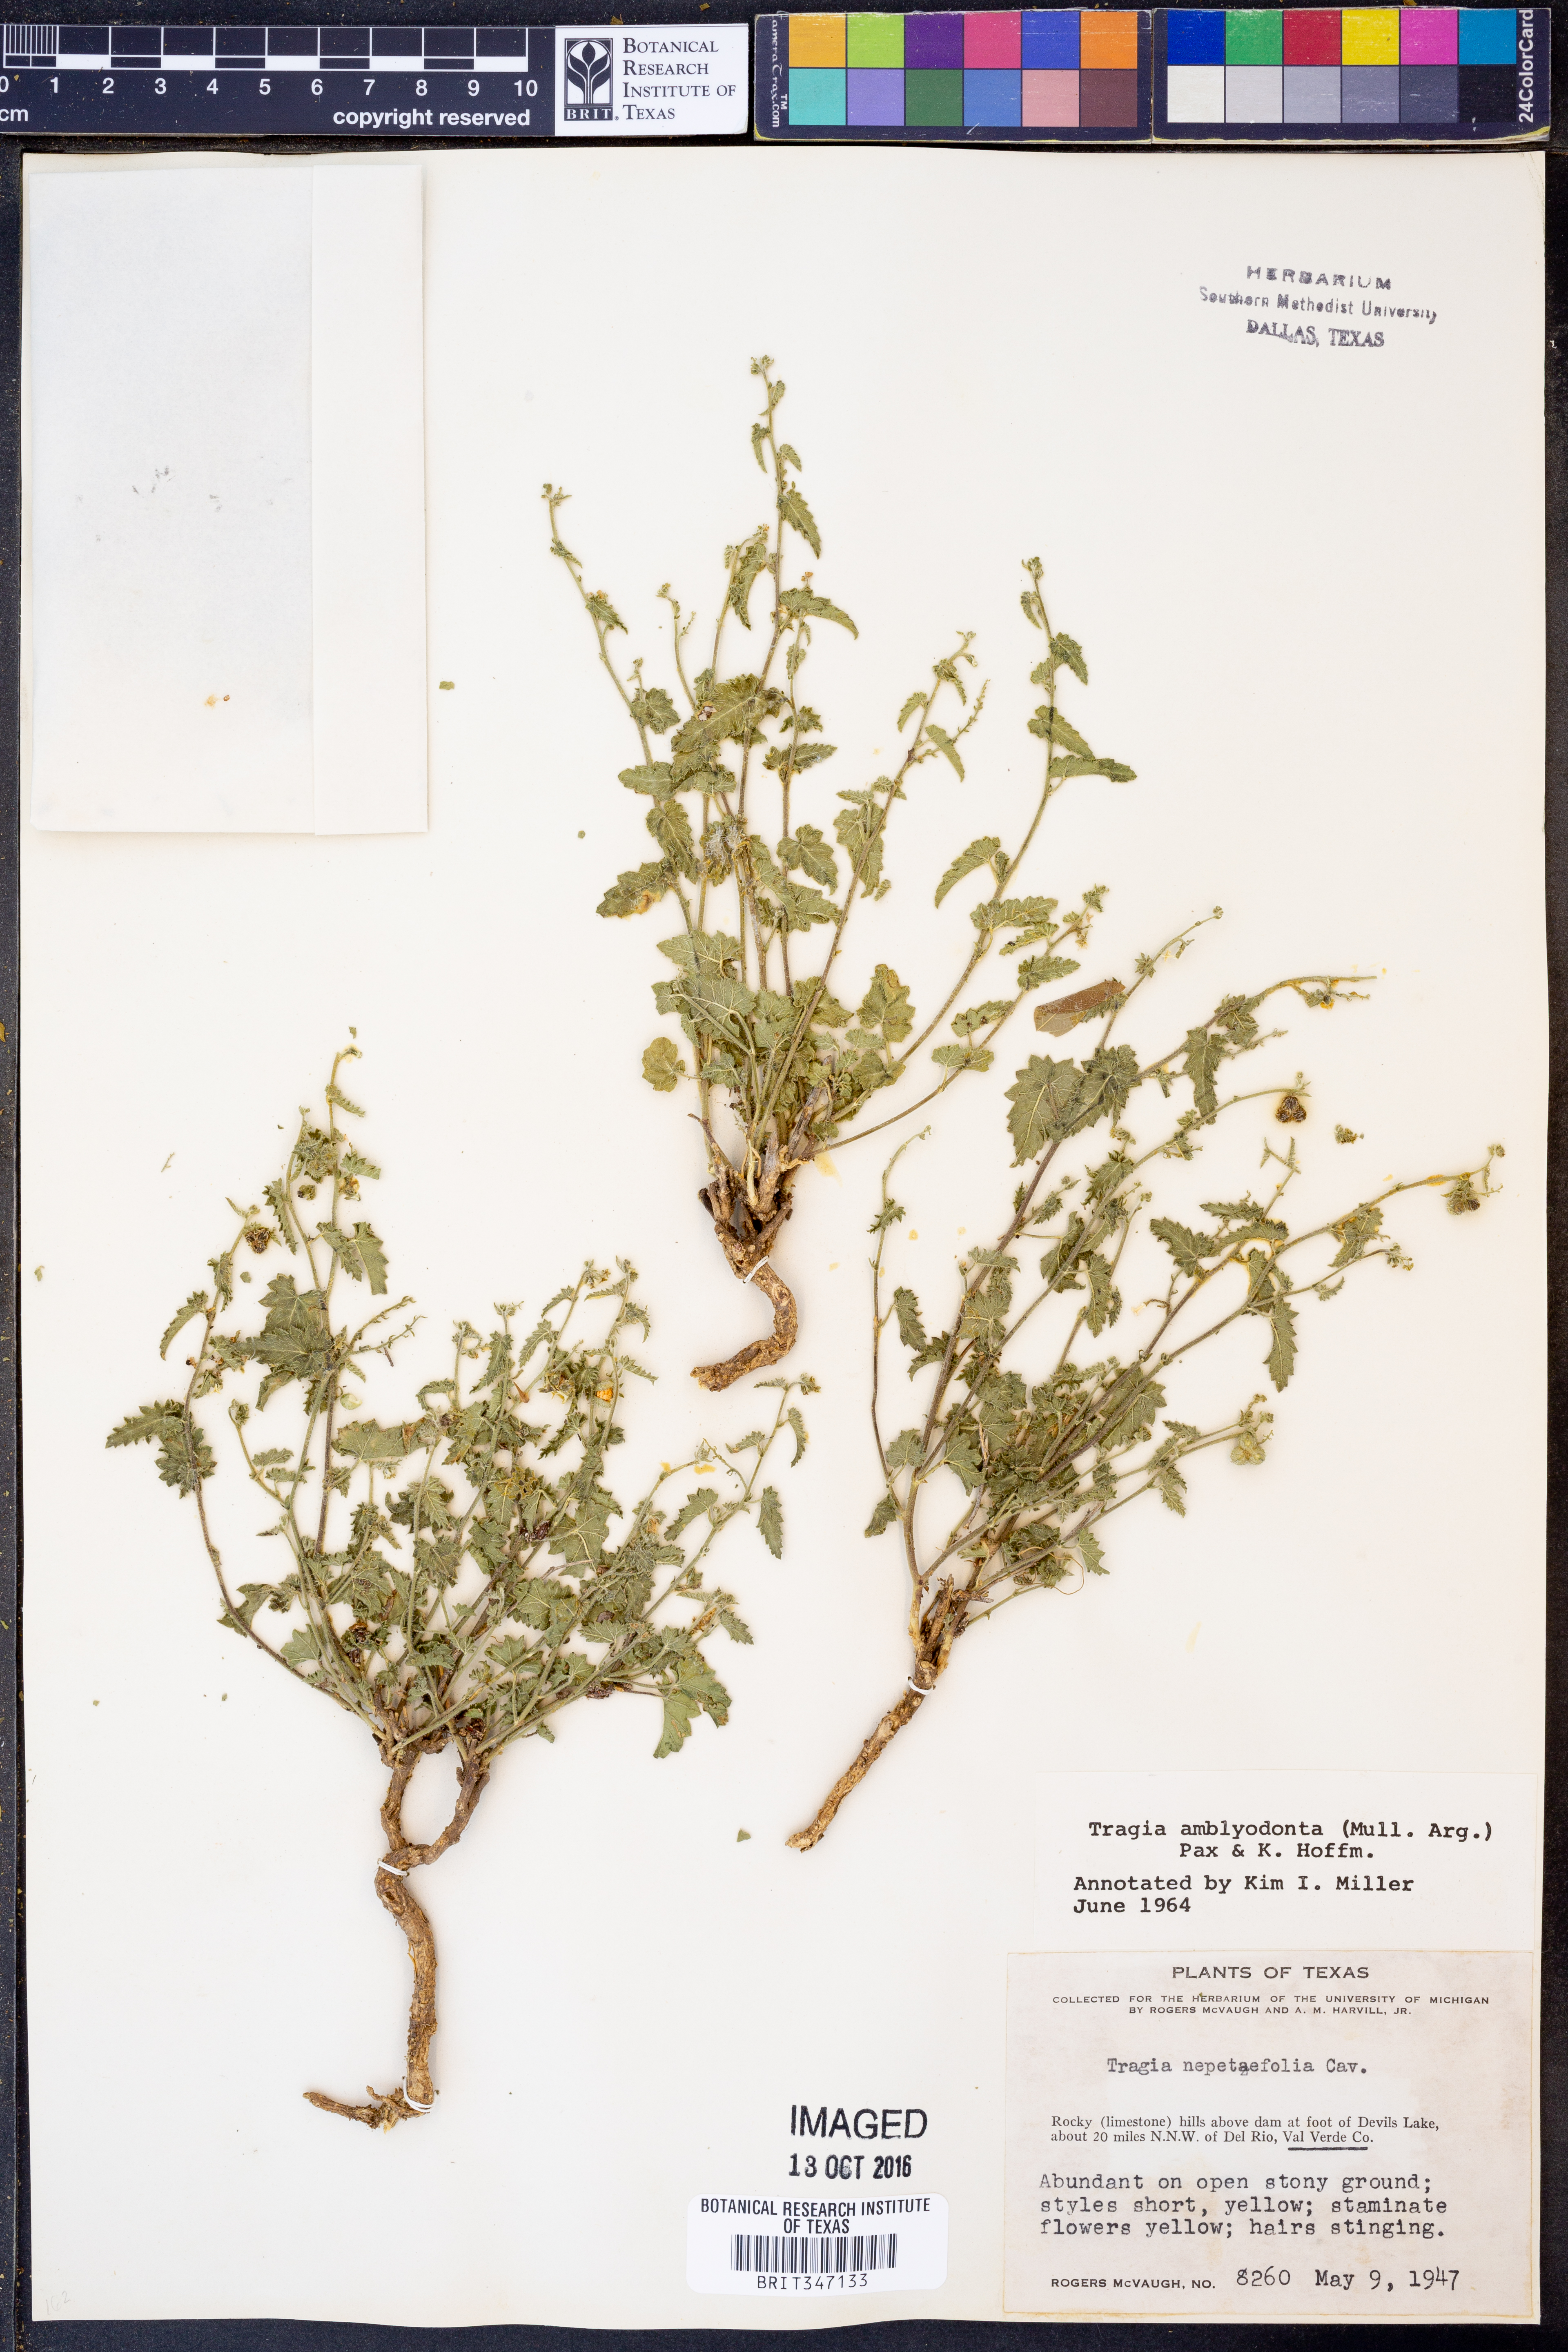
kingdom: Plantae
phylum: Tracheophyta
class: Magnoliopsida
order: Malpighiales
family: Euphorbiaceae
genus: Tragia
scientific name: Tragia amblyodonta
